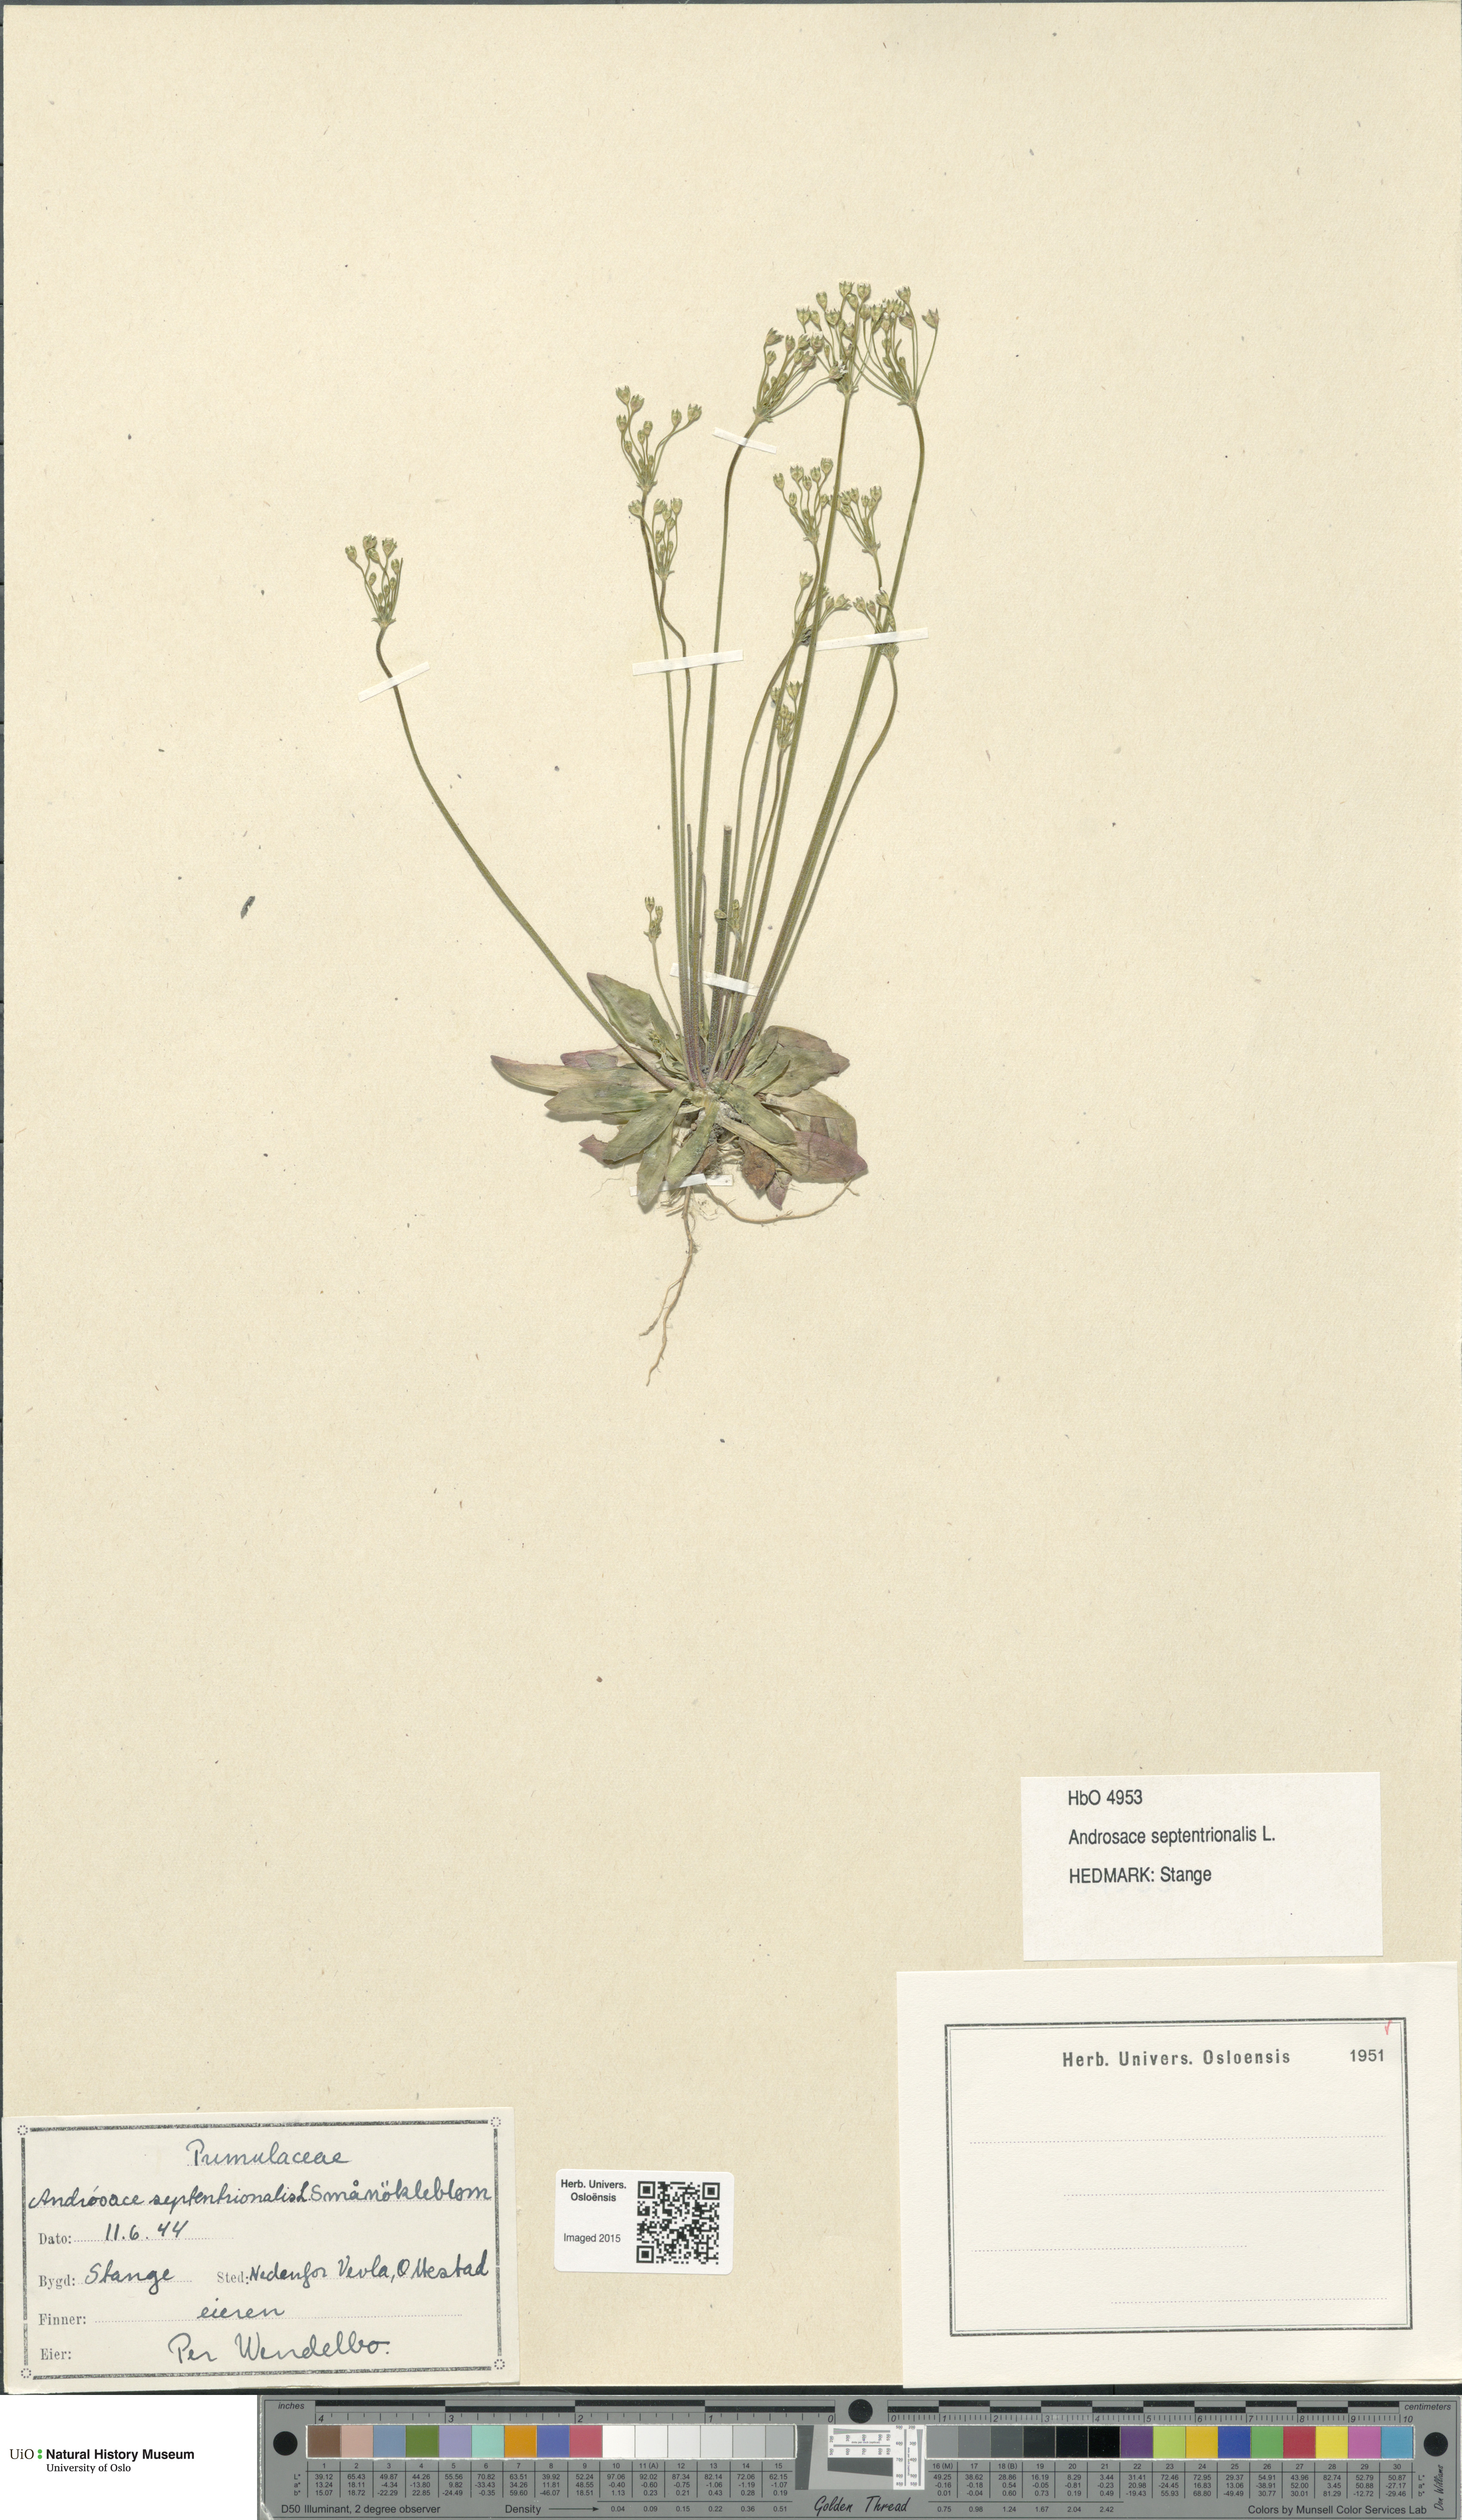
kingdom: Plantae
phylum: Tracheophyta
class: Magnoliopsida
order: Ericales
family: Primulaceae
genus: Androsace
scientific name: Androsace septentrionalis
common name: Hairy northern fairy-candelabra
